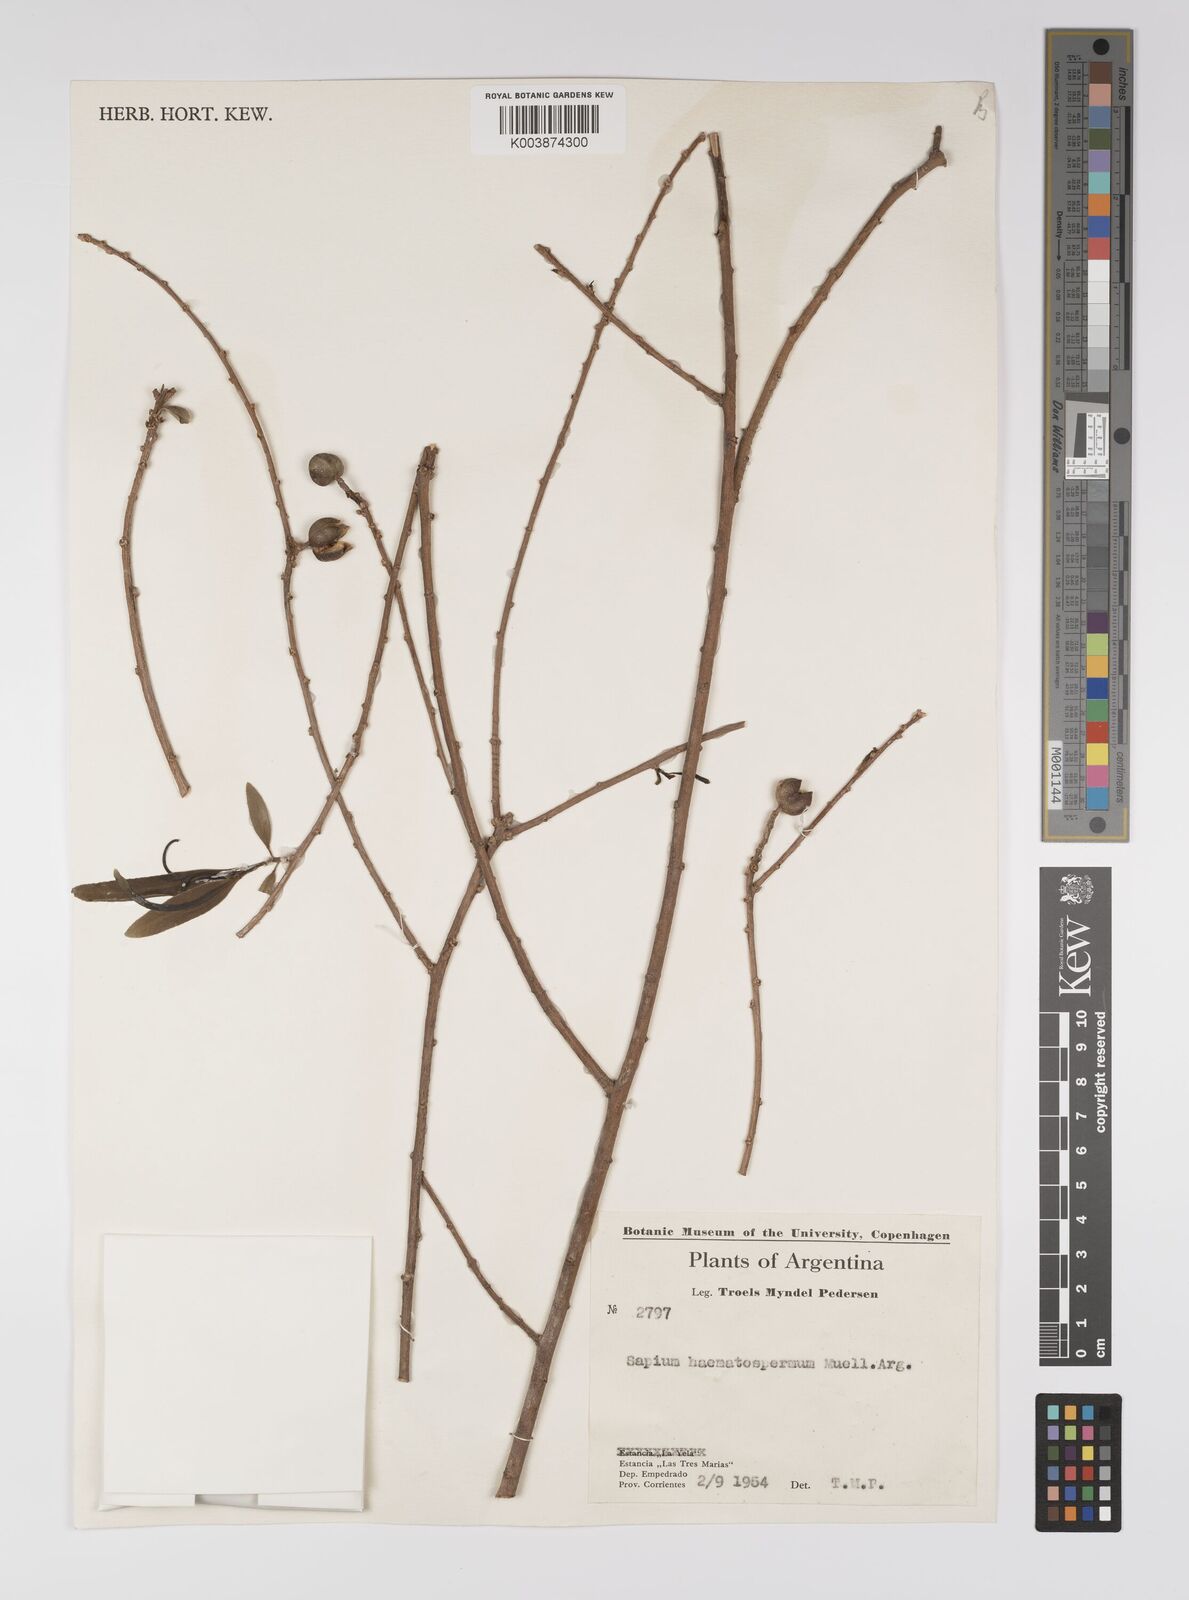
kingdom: Plantae
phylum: Tracheophyta
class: Magnoliopsida
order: Malpighiales
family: Euphorbiaceae
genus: Sapium
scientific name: Sapium haematospermum
